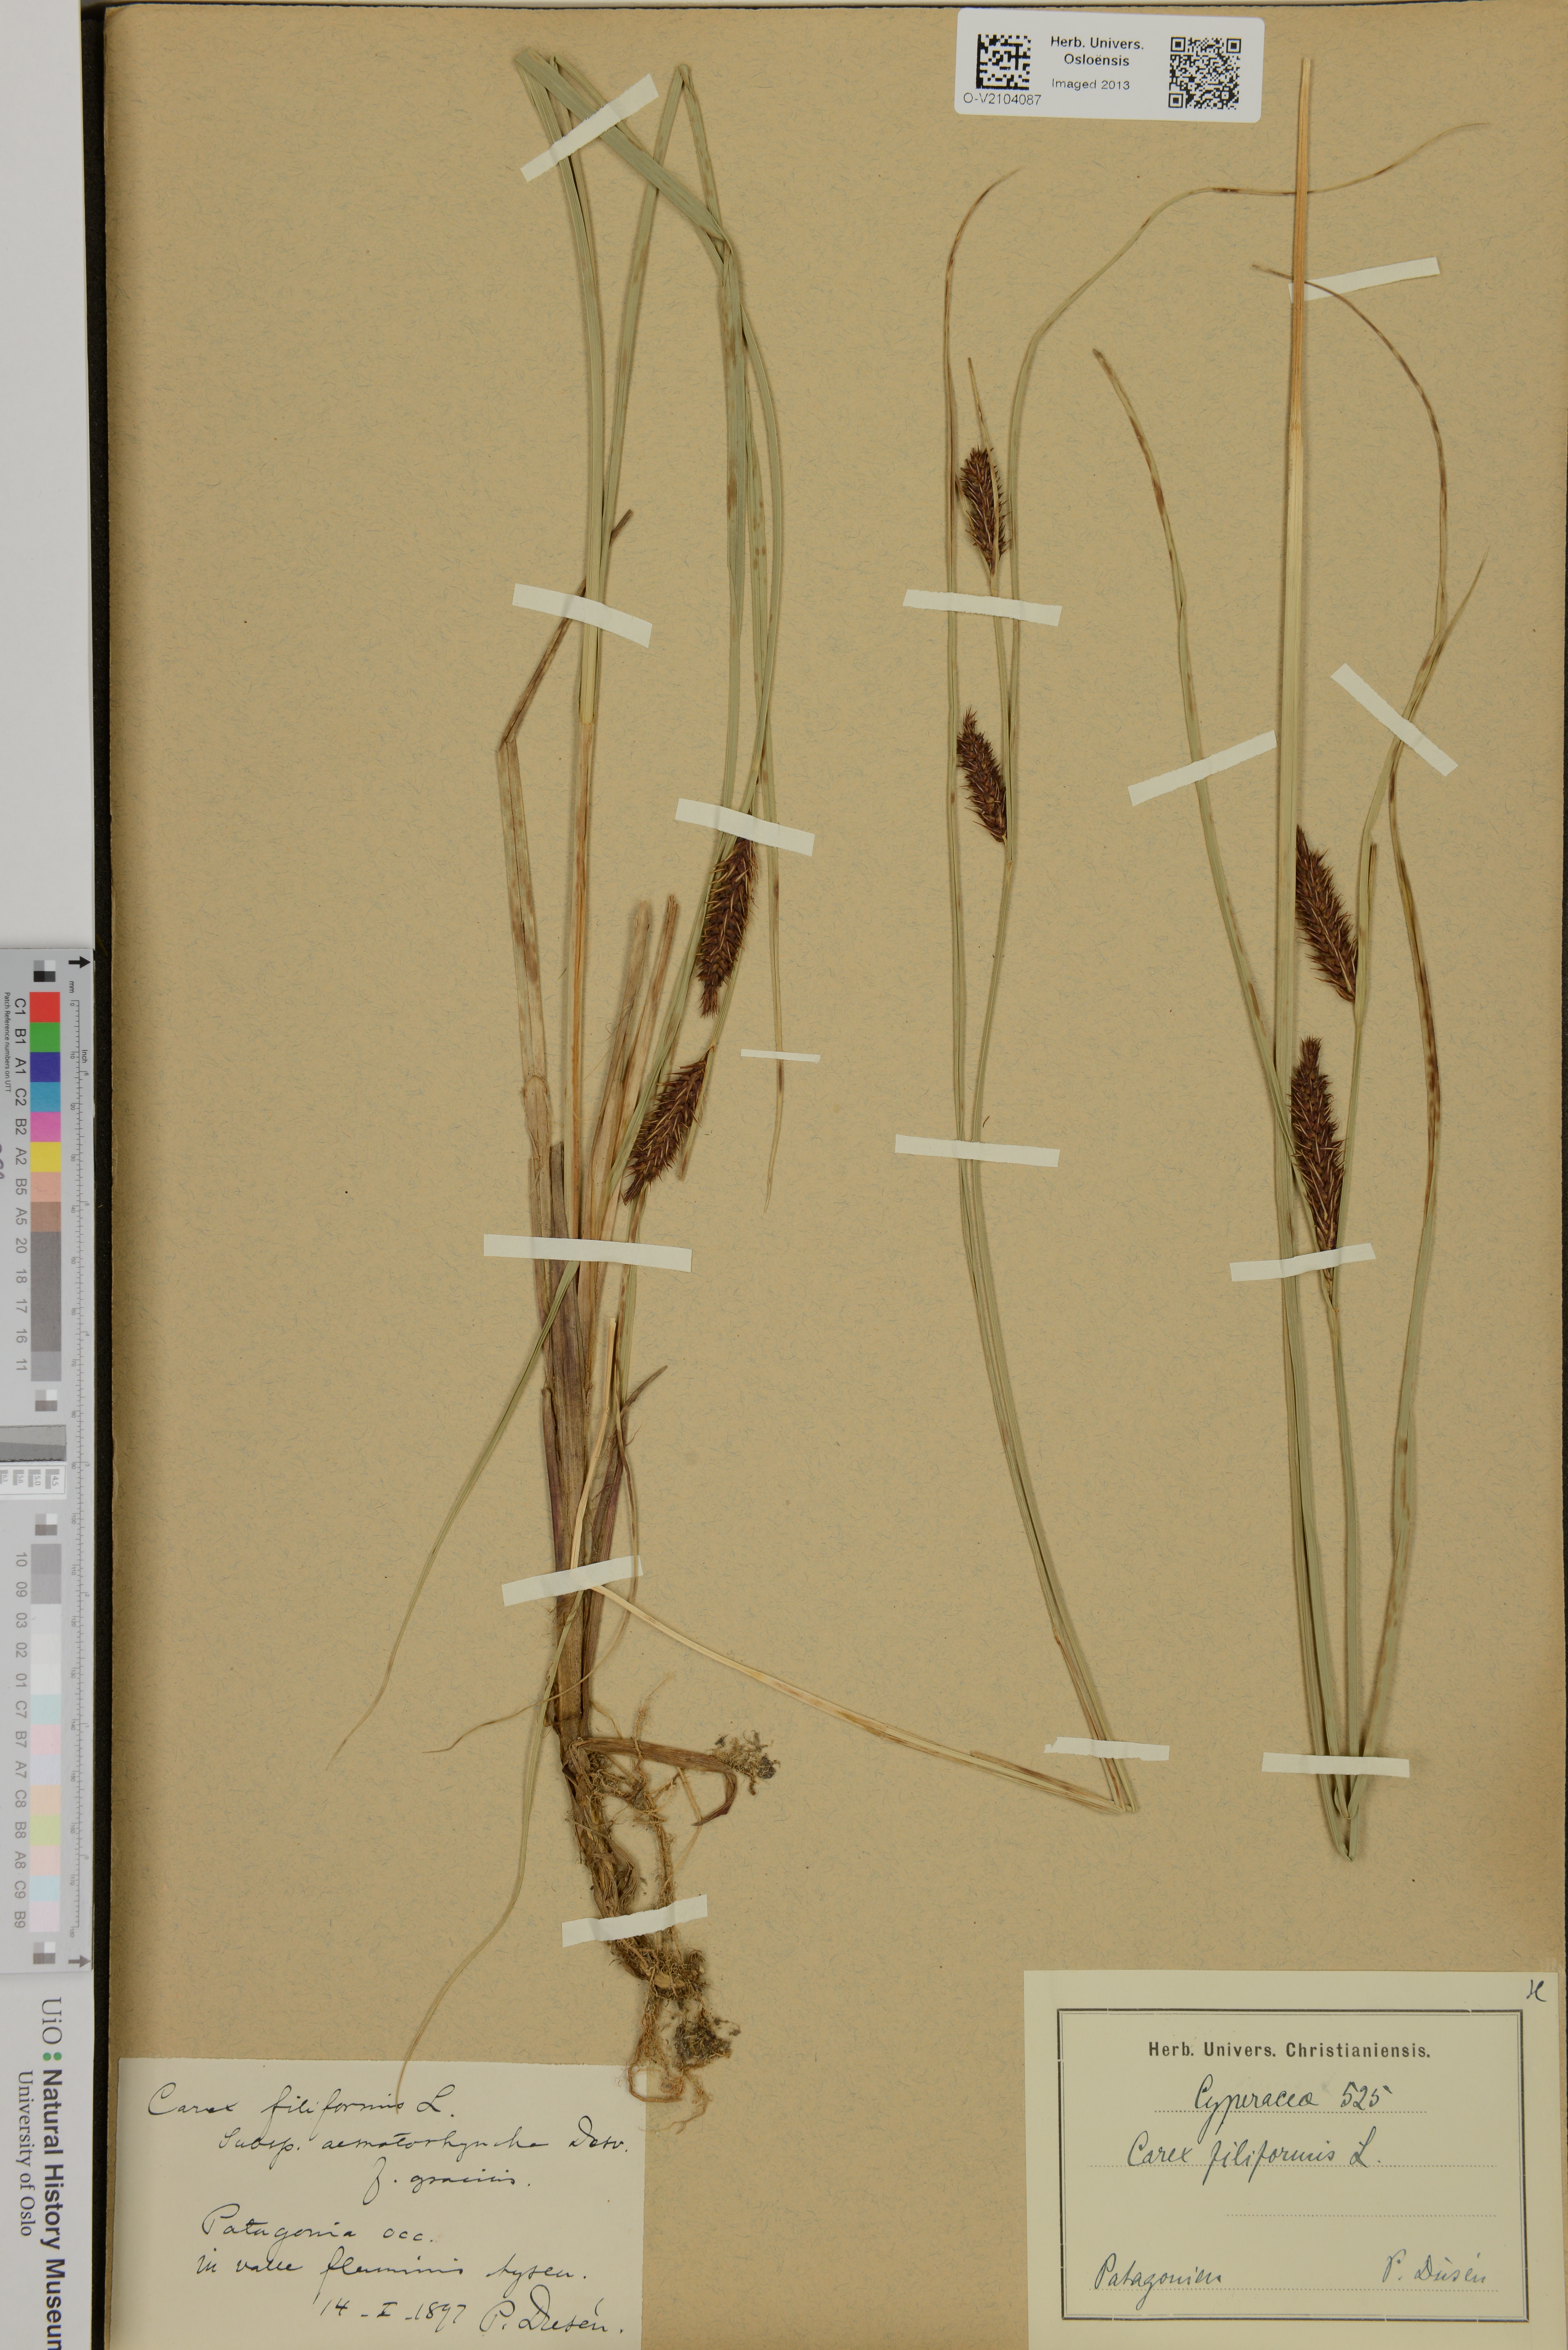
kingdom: Plantae
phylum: Tracheophyta
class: Liliopsida
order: Poales
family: Cyperaceae
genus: Carex
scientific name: Carex montana
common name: Soft-leaved sedge
